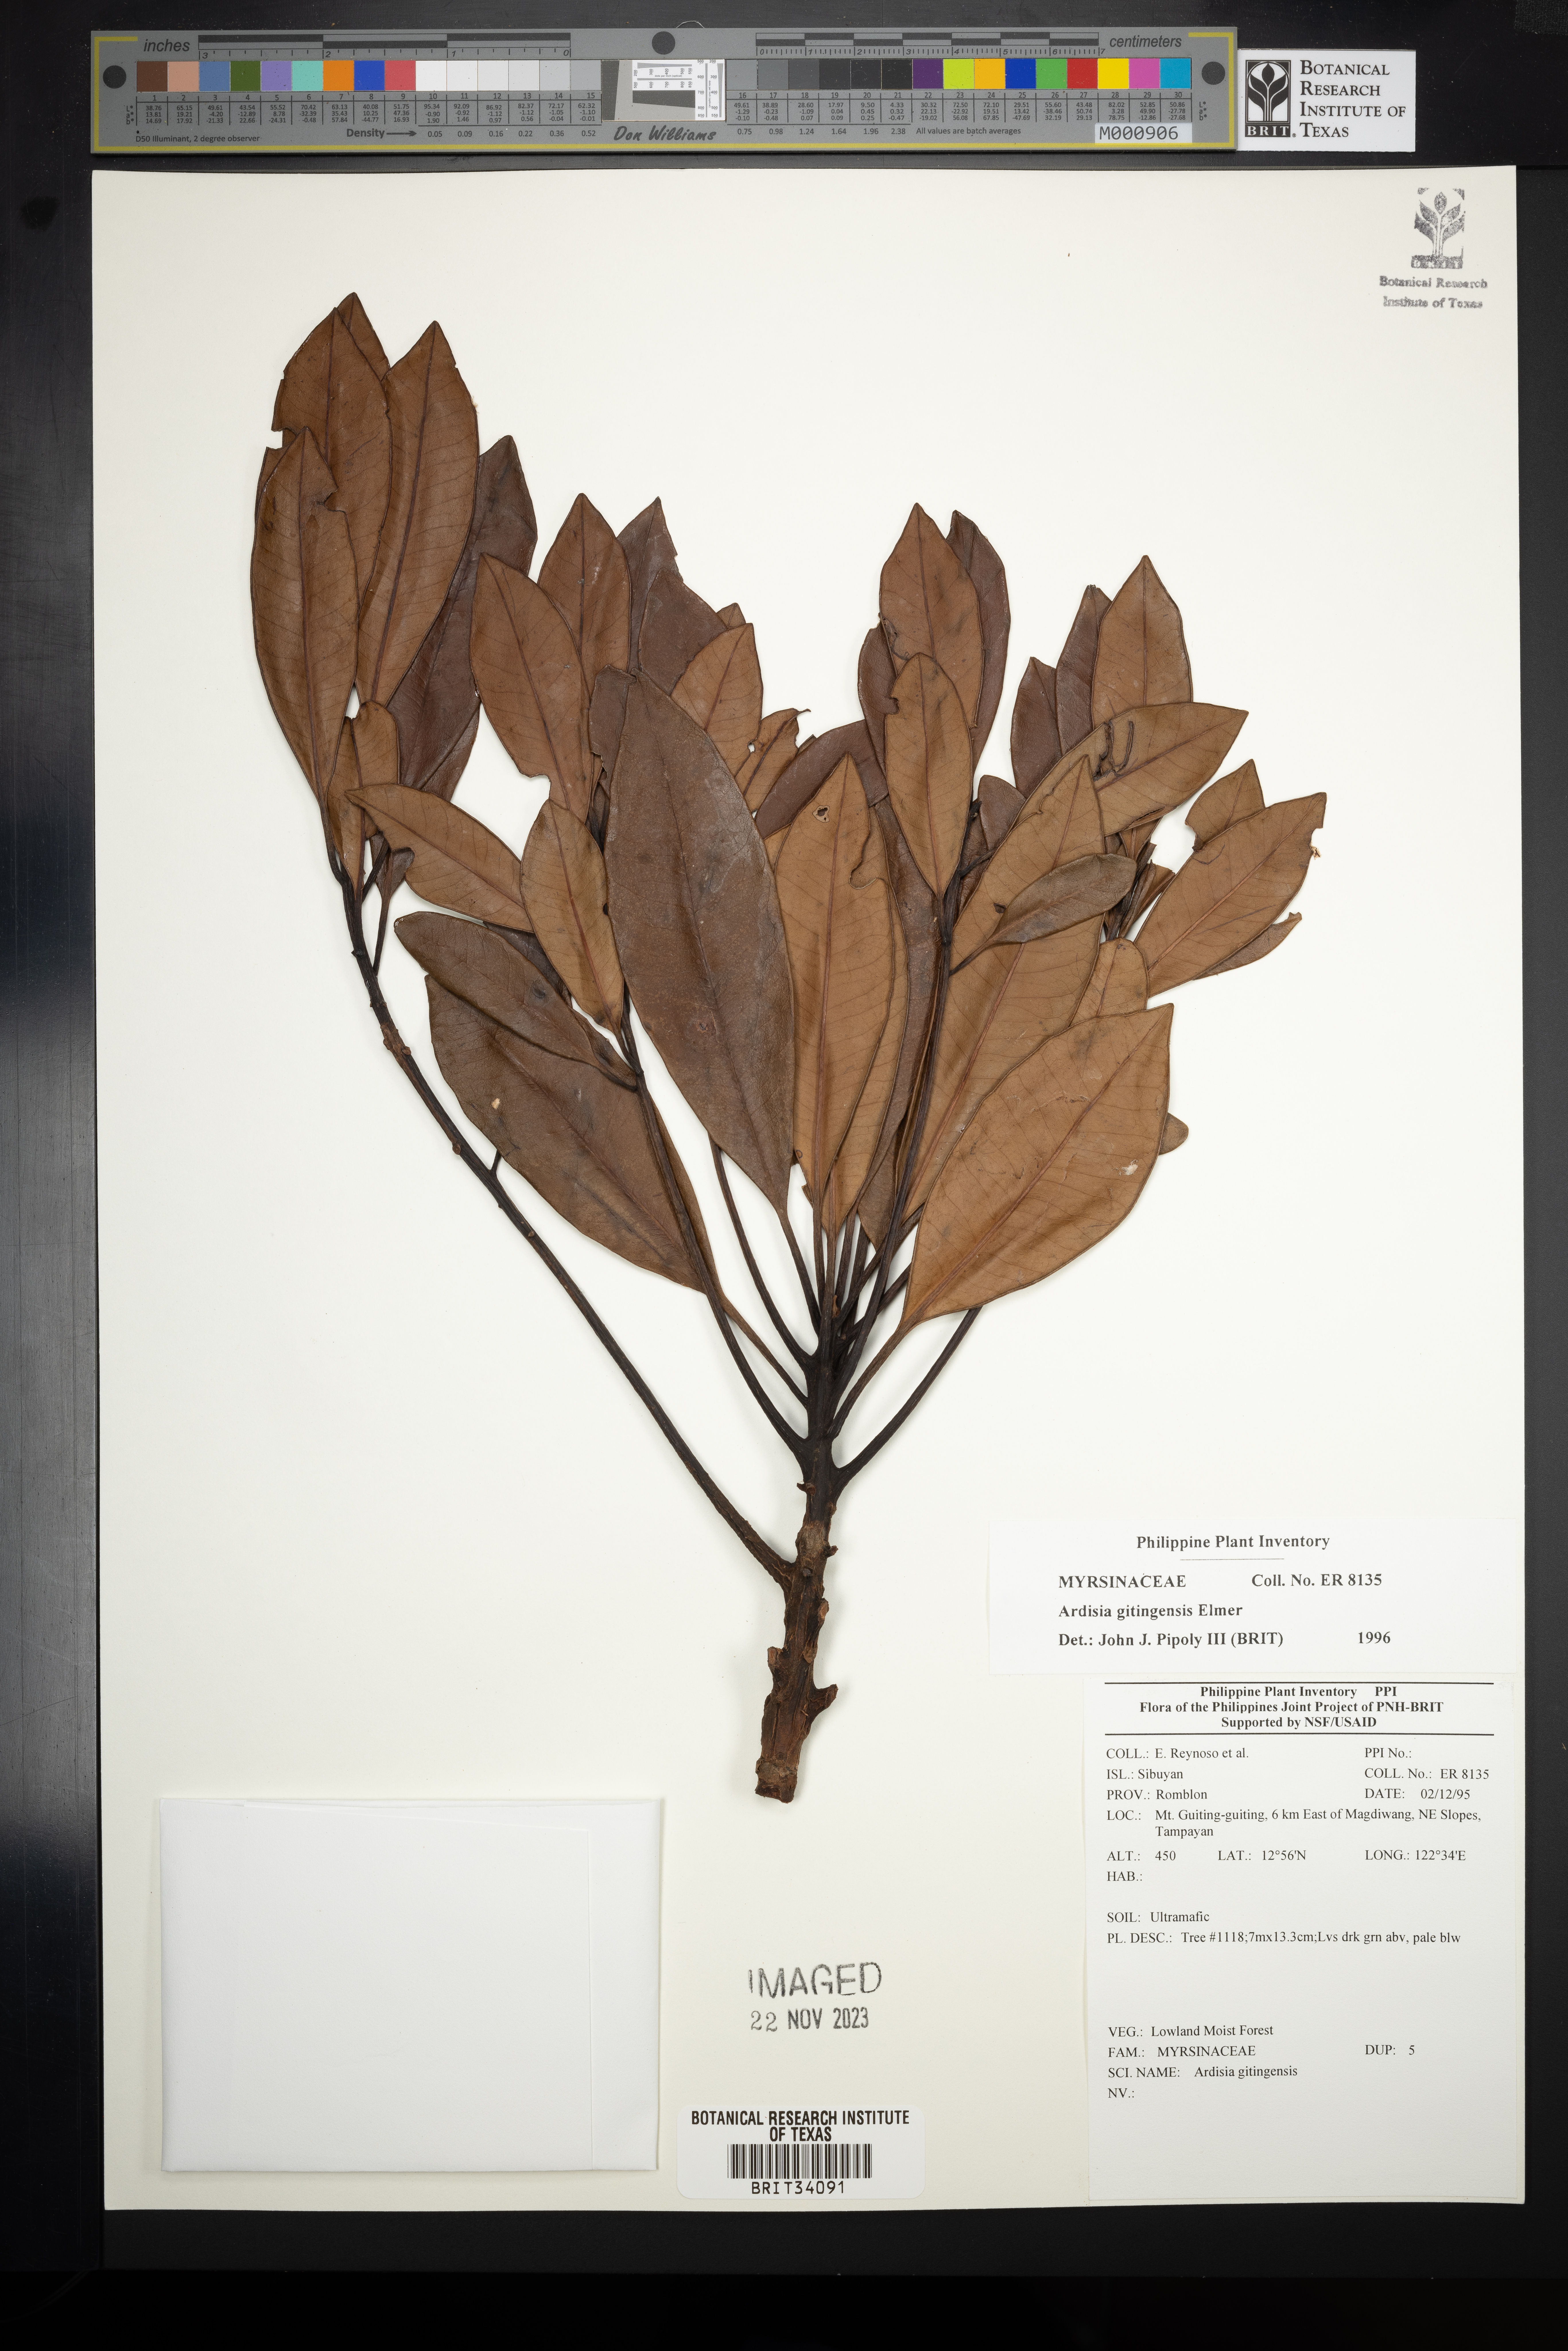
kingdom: Plantae
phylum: Tracheophyta
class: Magnoliopsida
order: Ericales
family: Primulaceae
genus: Ardisia
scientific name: Ardisia darlingii
